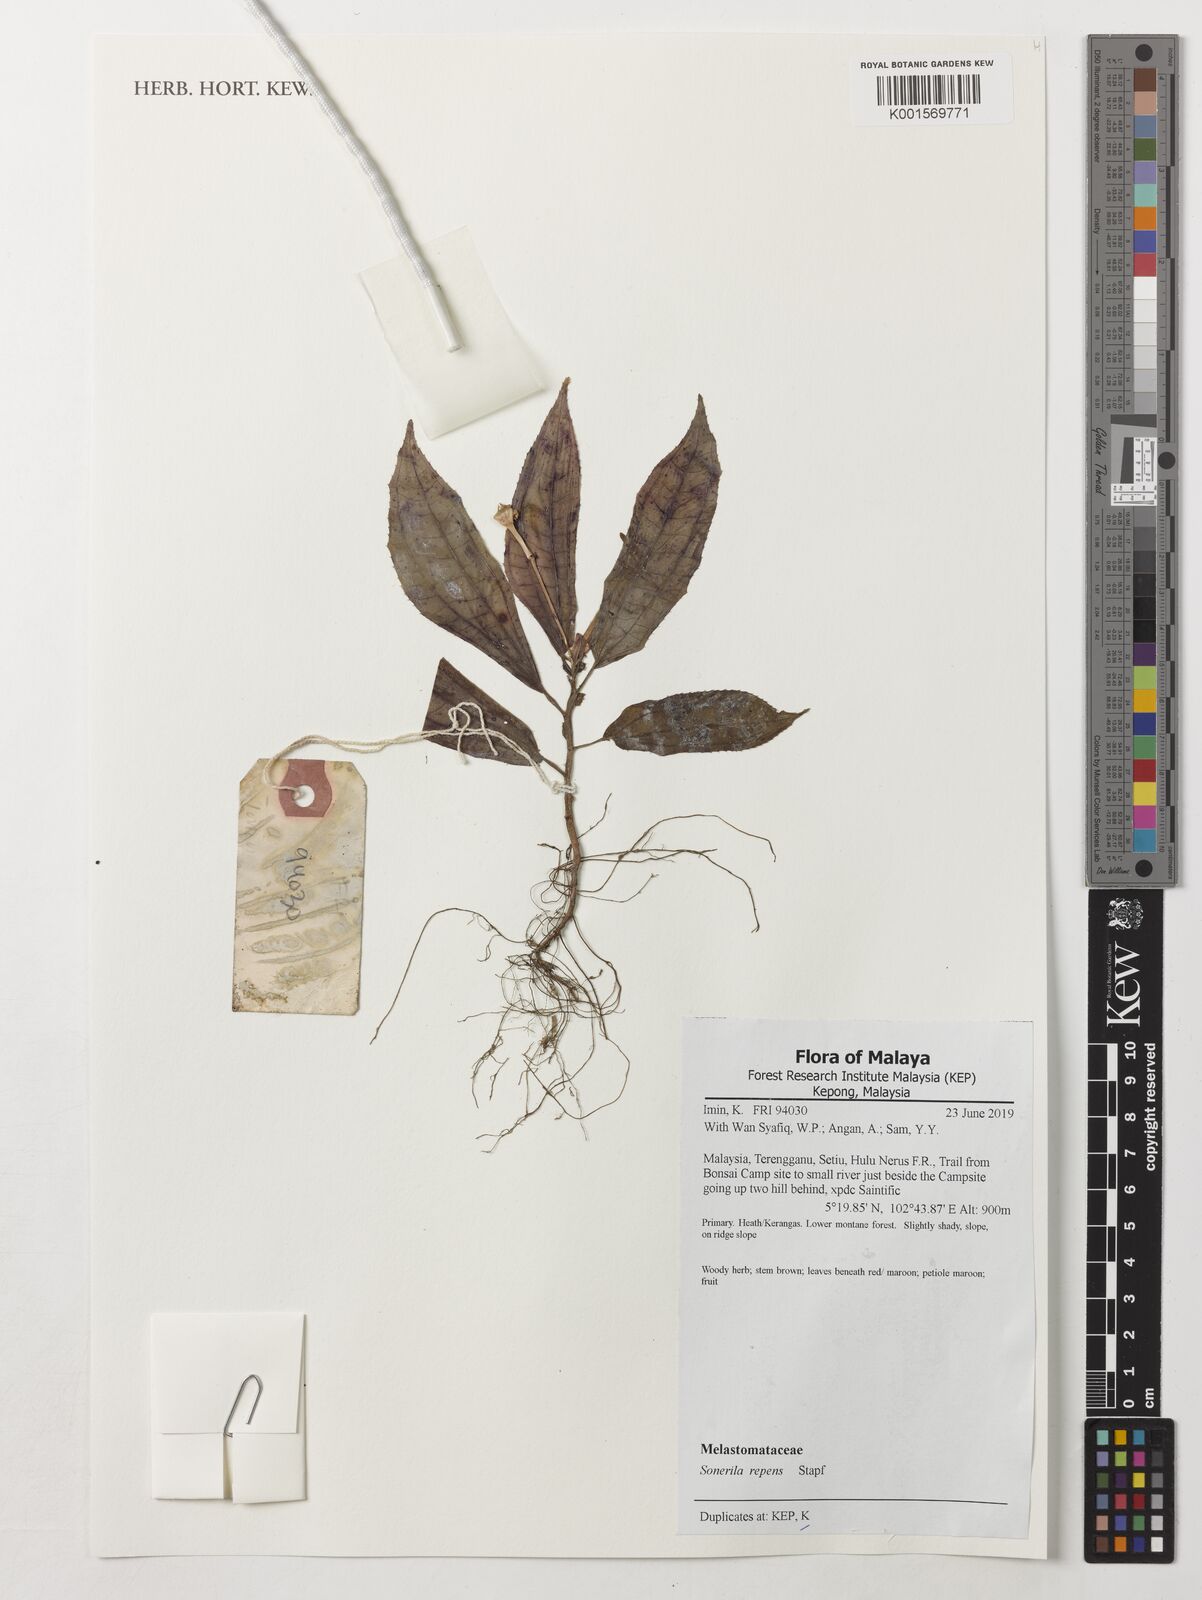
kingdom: Plantae
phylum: Tracheophyta
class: Magnoliopsida
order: Myrtales
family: Melastomataceae
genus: Sonerila
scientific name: Sonerila repens
